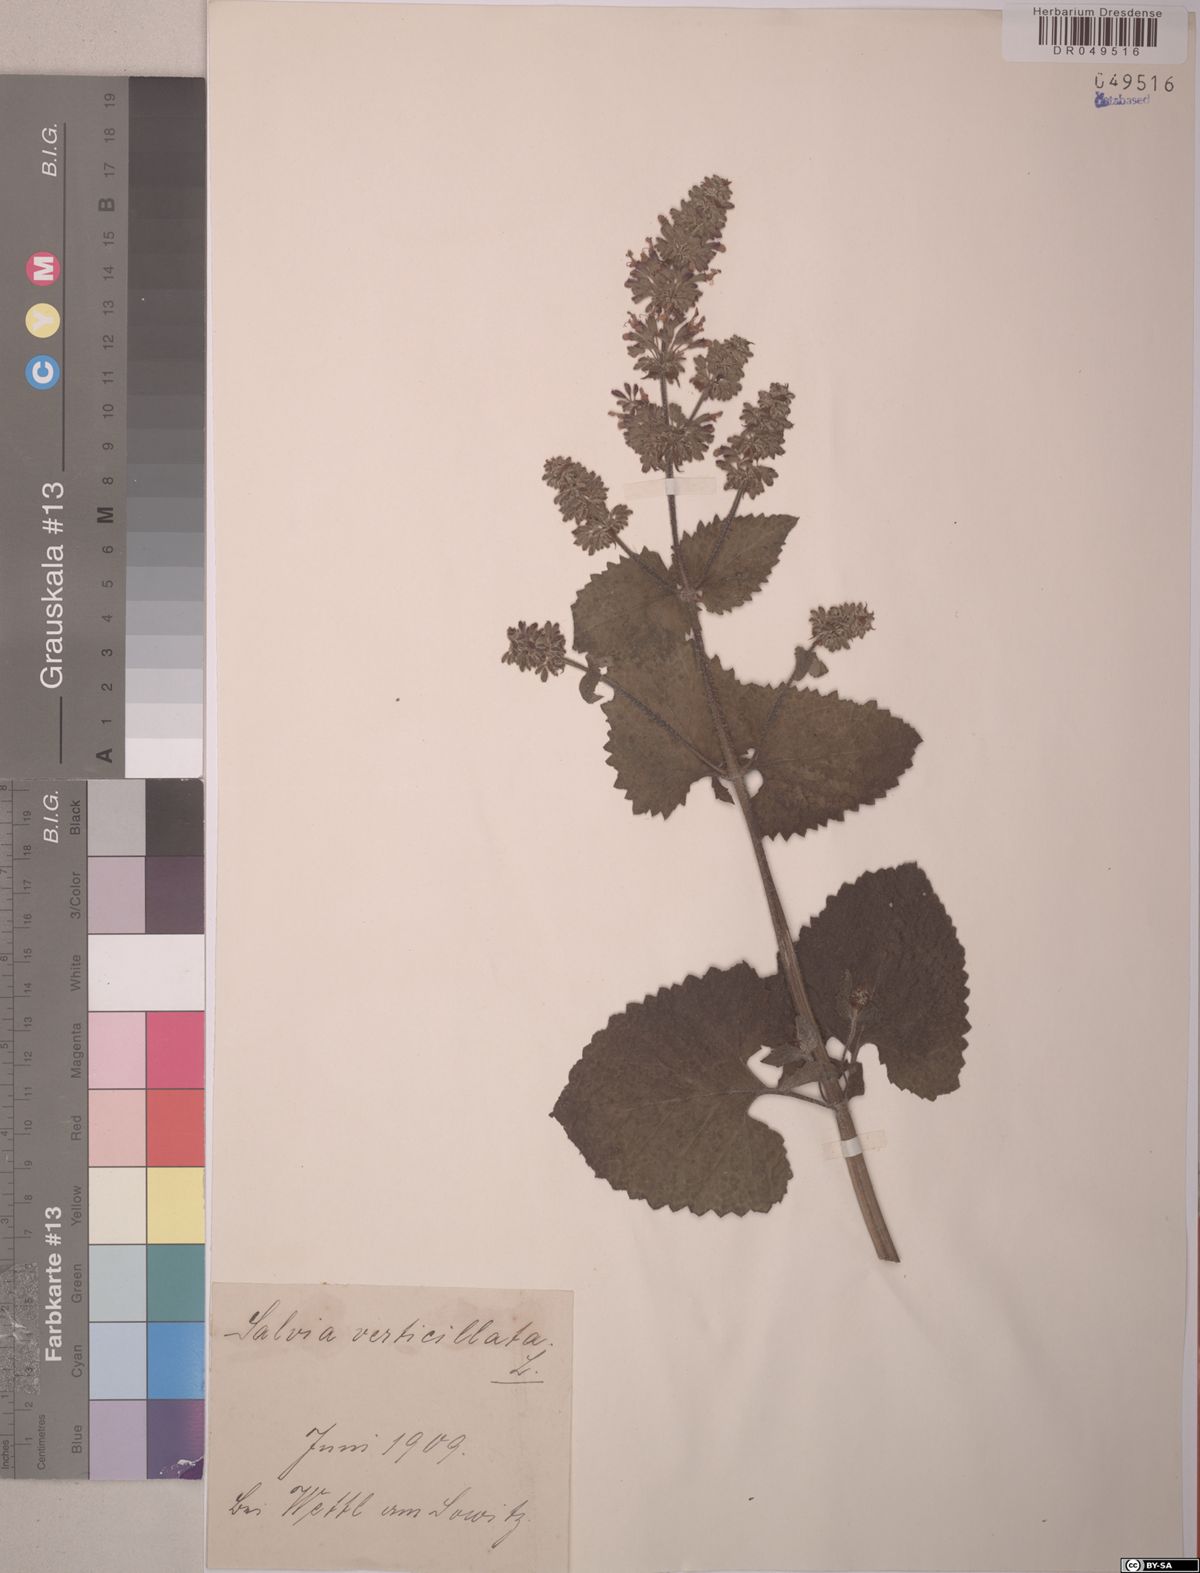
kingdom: Plantae
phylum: Tracheophyta
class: Magnoliopsida
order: Lamiales
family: Lamiaceae
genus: Salvia
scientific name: Salvia verticillata
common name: Whorled clary
